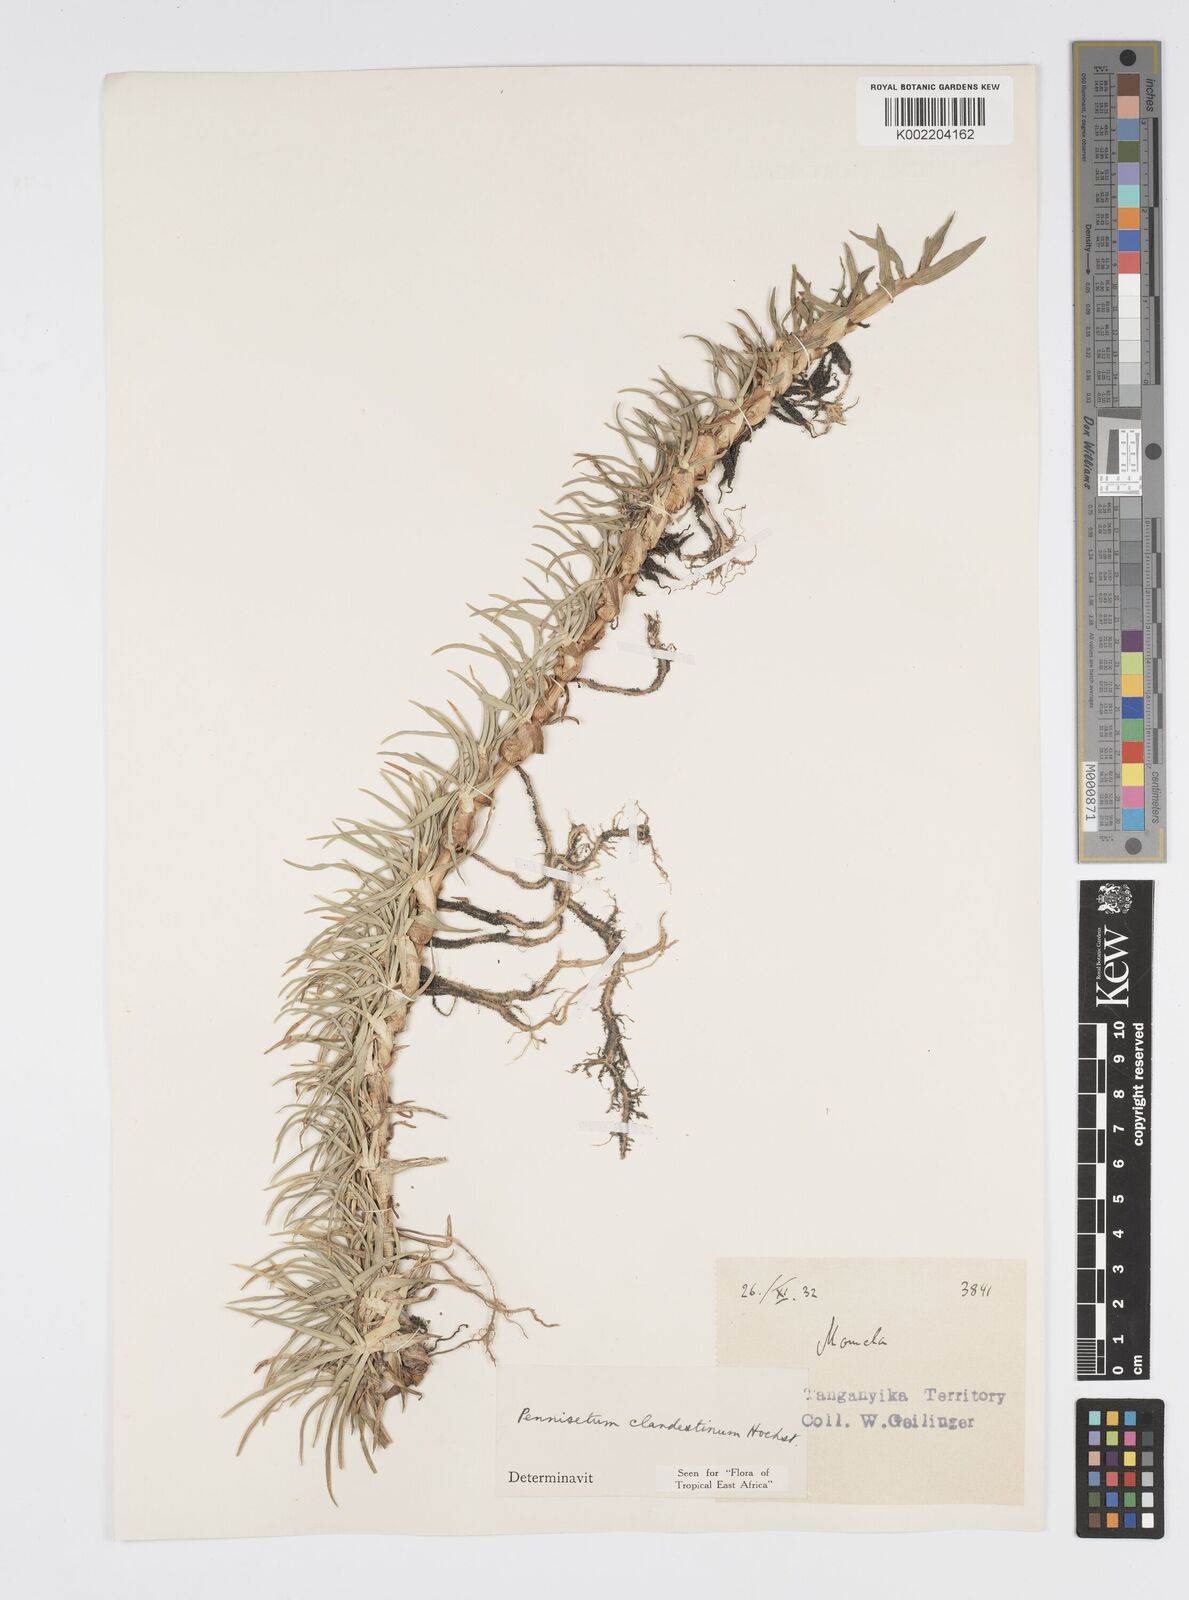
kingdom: Plantae
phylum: Tracheophyta
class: Liliopsida
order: Poales
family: Poaceae
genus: Cenchrus
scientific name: Cenchrus clandestinus
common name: Kikuyugrass
